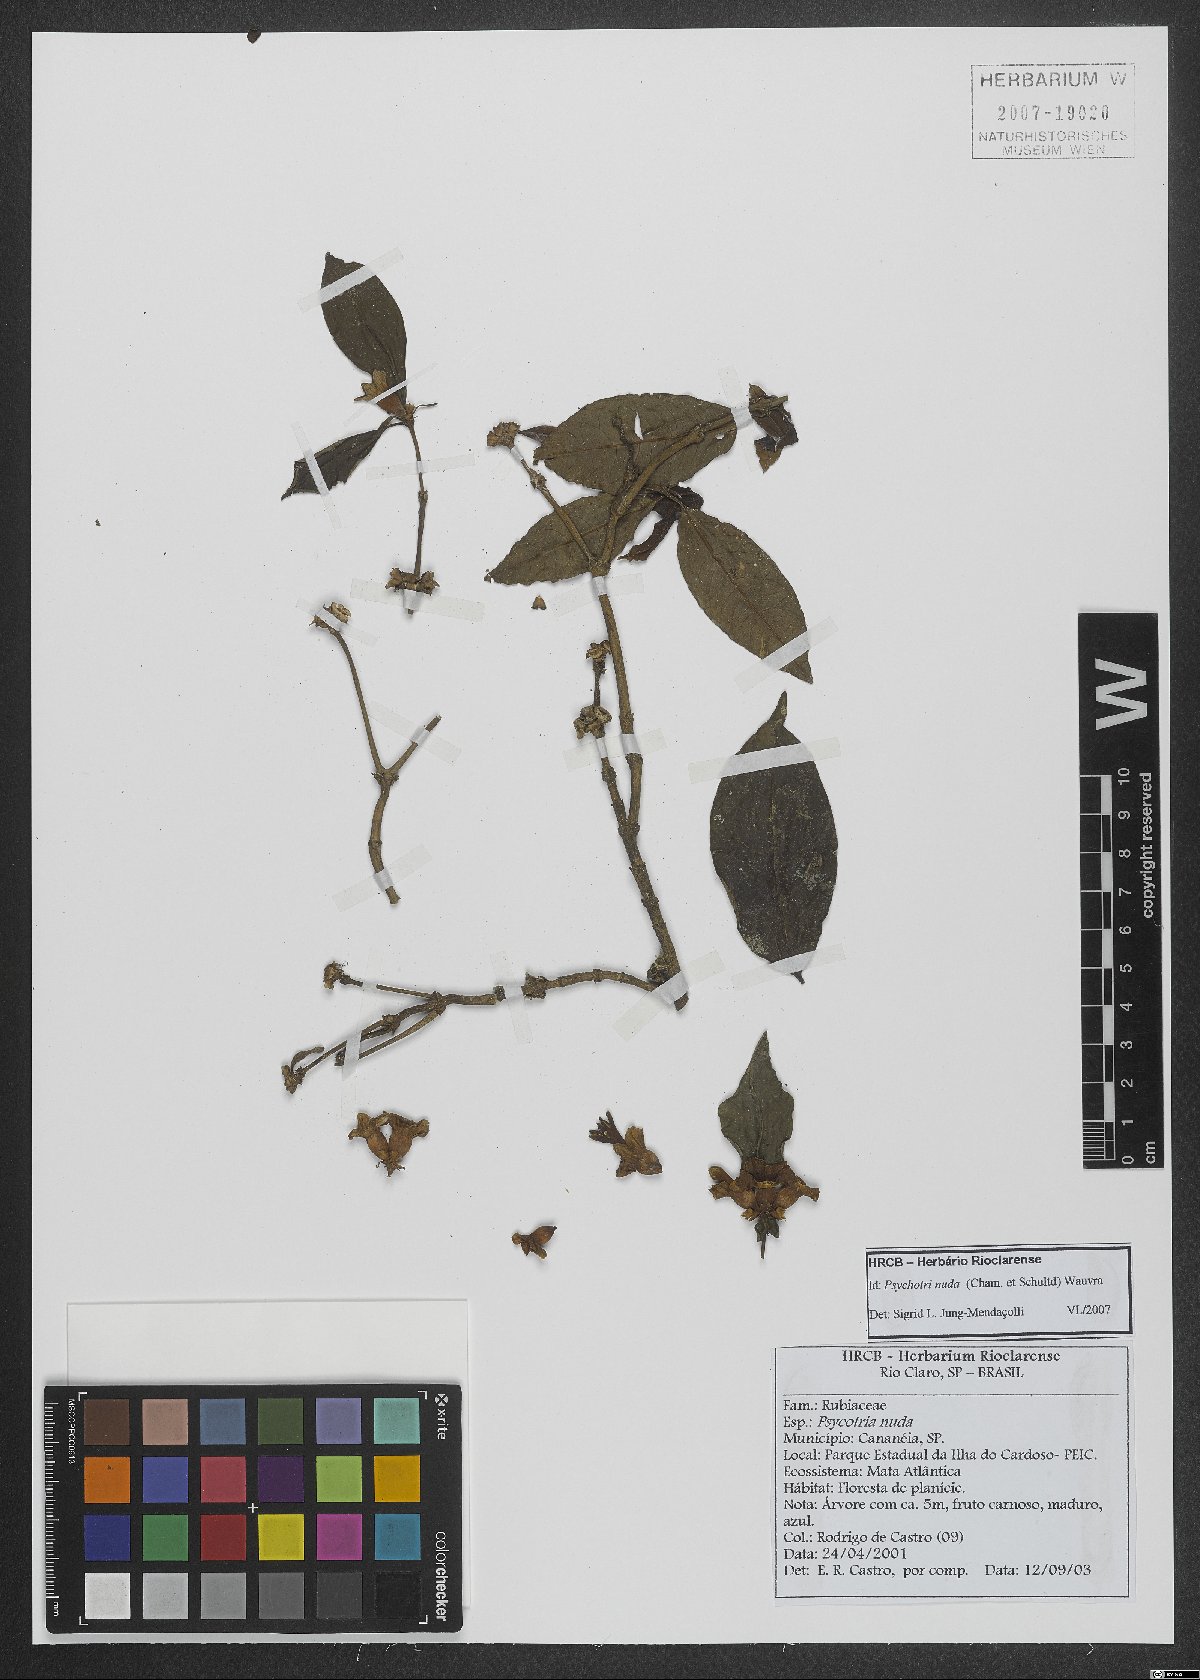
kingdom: Plantae
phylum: Tracheophyta
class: Magnoliopsida
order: Gentianales
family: Rubiaceae
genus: Psychotria
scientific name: Psychotria nuda
